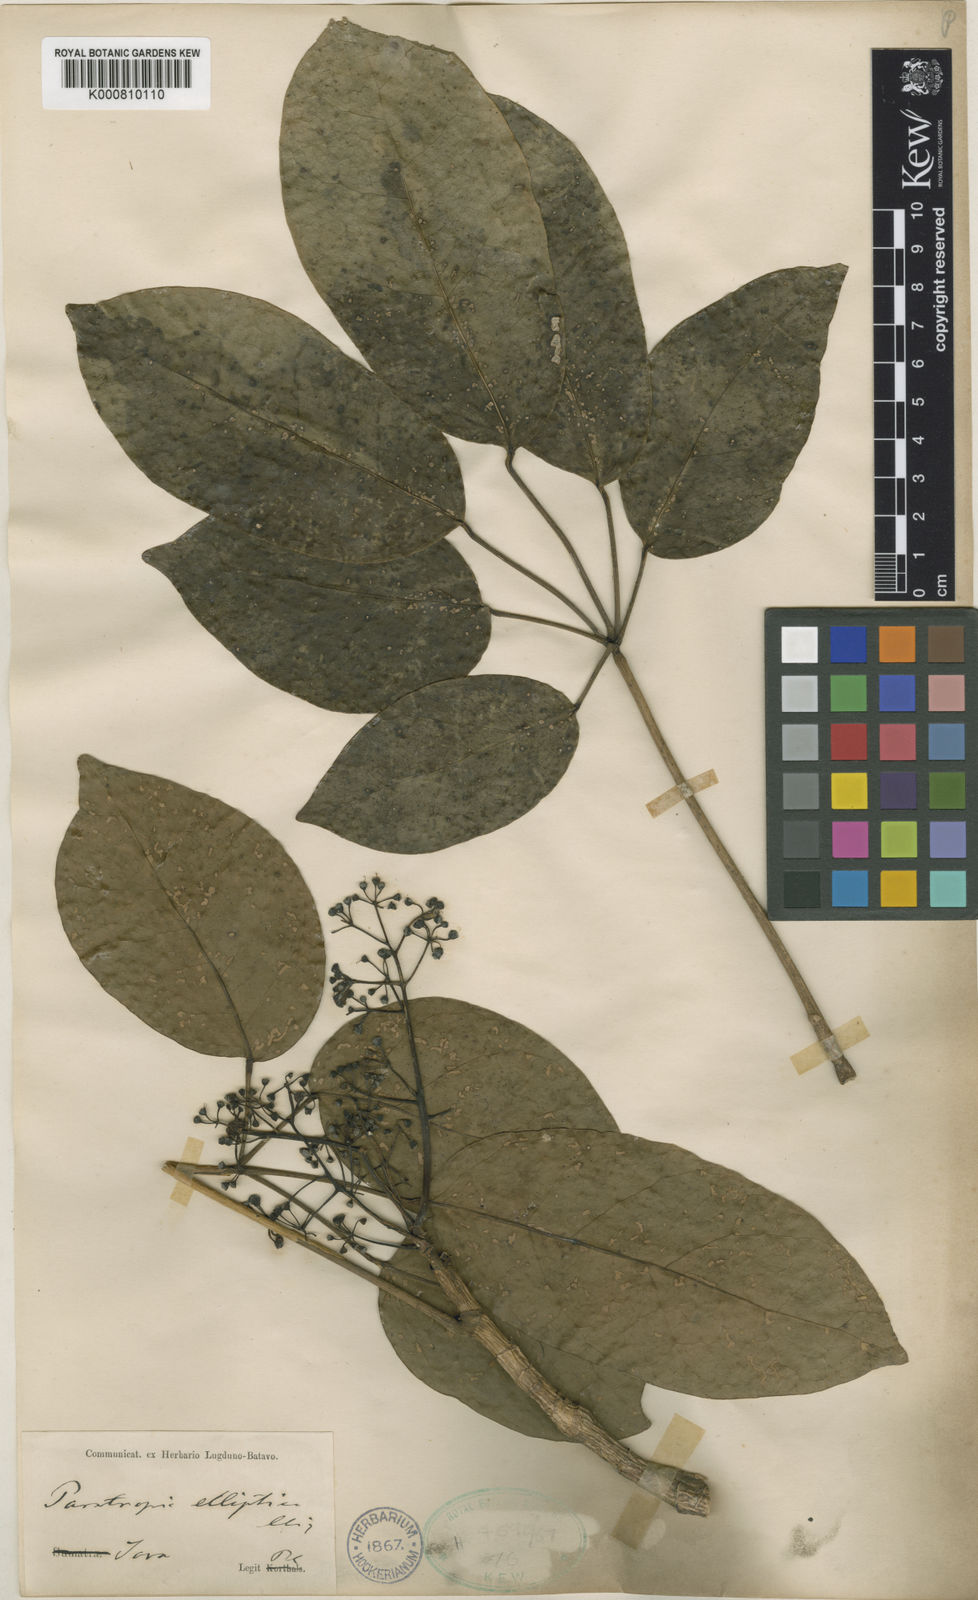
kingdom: Plantae
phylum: Tracheophyta
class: Magnoliopsida
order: Apiales
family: Araliaceae
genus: Heptapleurum
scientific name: Heptapleurum ellipticum
